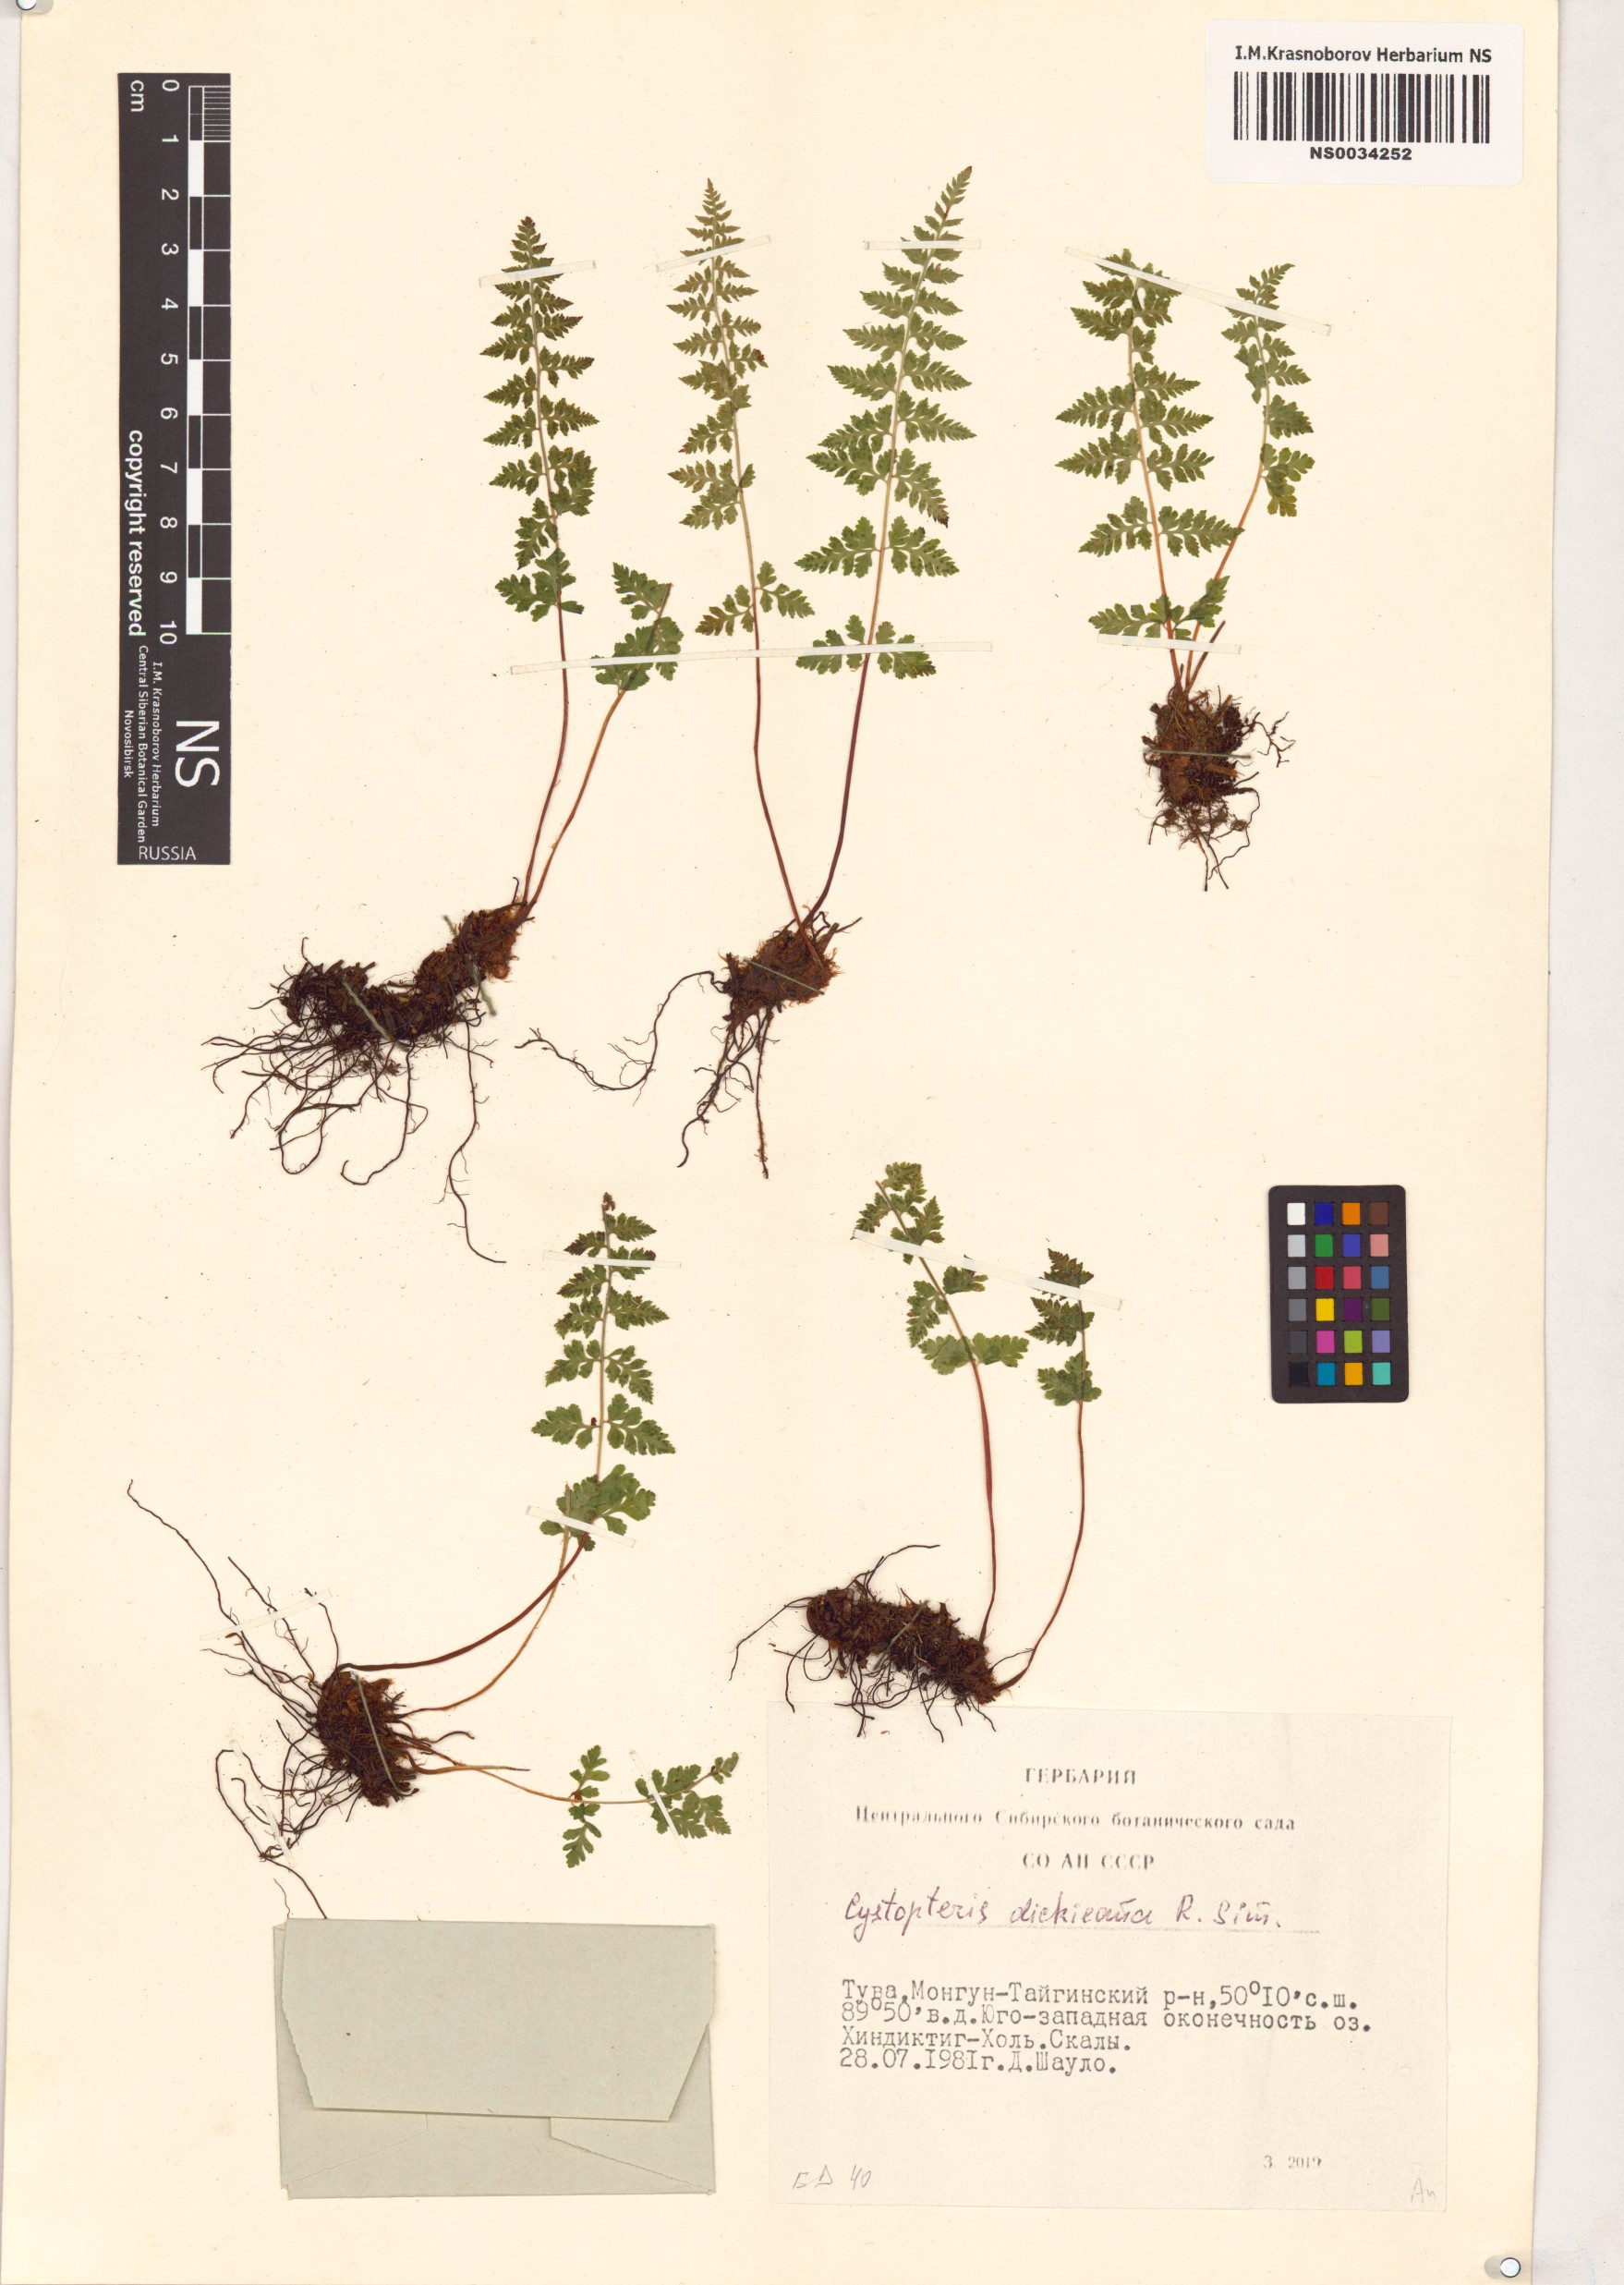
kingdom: Plantae
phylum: Tracheophyta
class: Polypodiopsida
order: Polypodiales
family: Cystopteridaceae
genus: Cystopteris
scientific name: Cystopteris dickieana
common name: Dickie's bladder-fern
